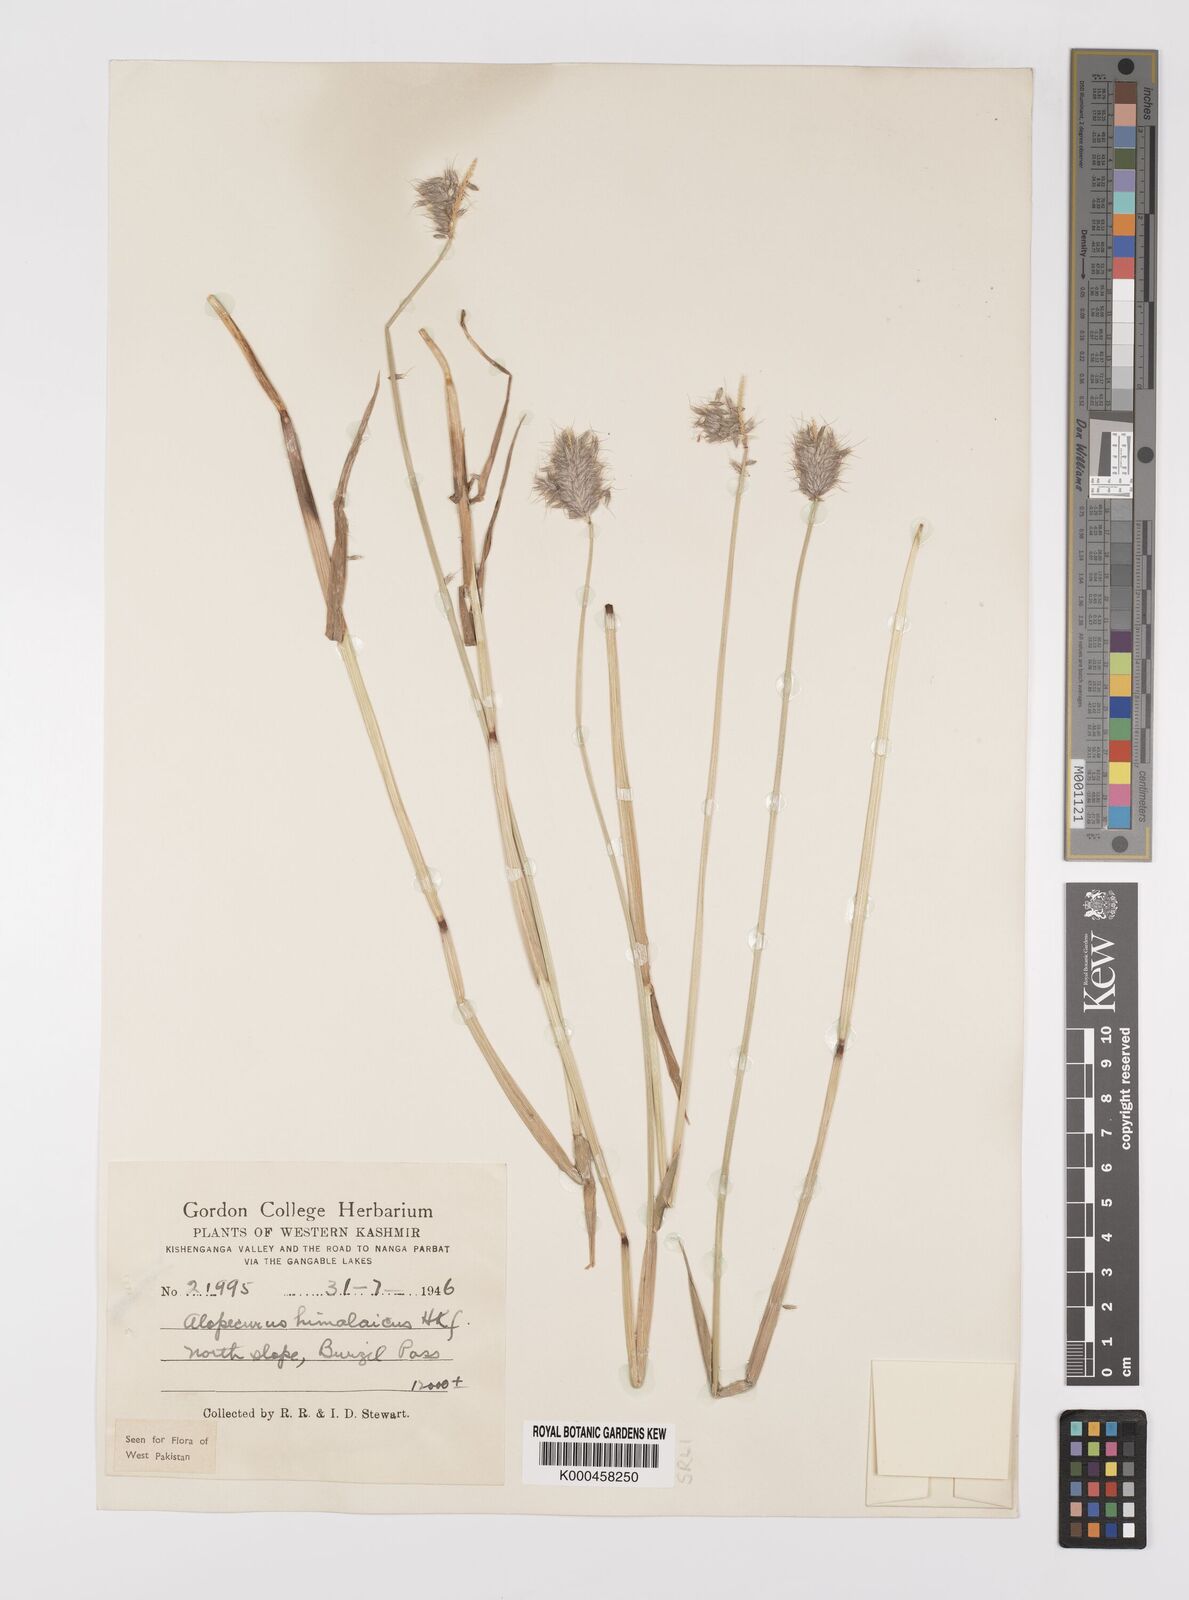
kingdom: Plantae
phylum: Tracheophyta
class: Liliopsida
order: Poales
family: Poaceae
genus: Alopecurus
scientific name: Alopecurus himalaicus
